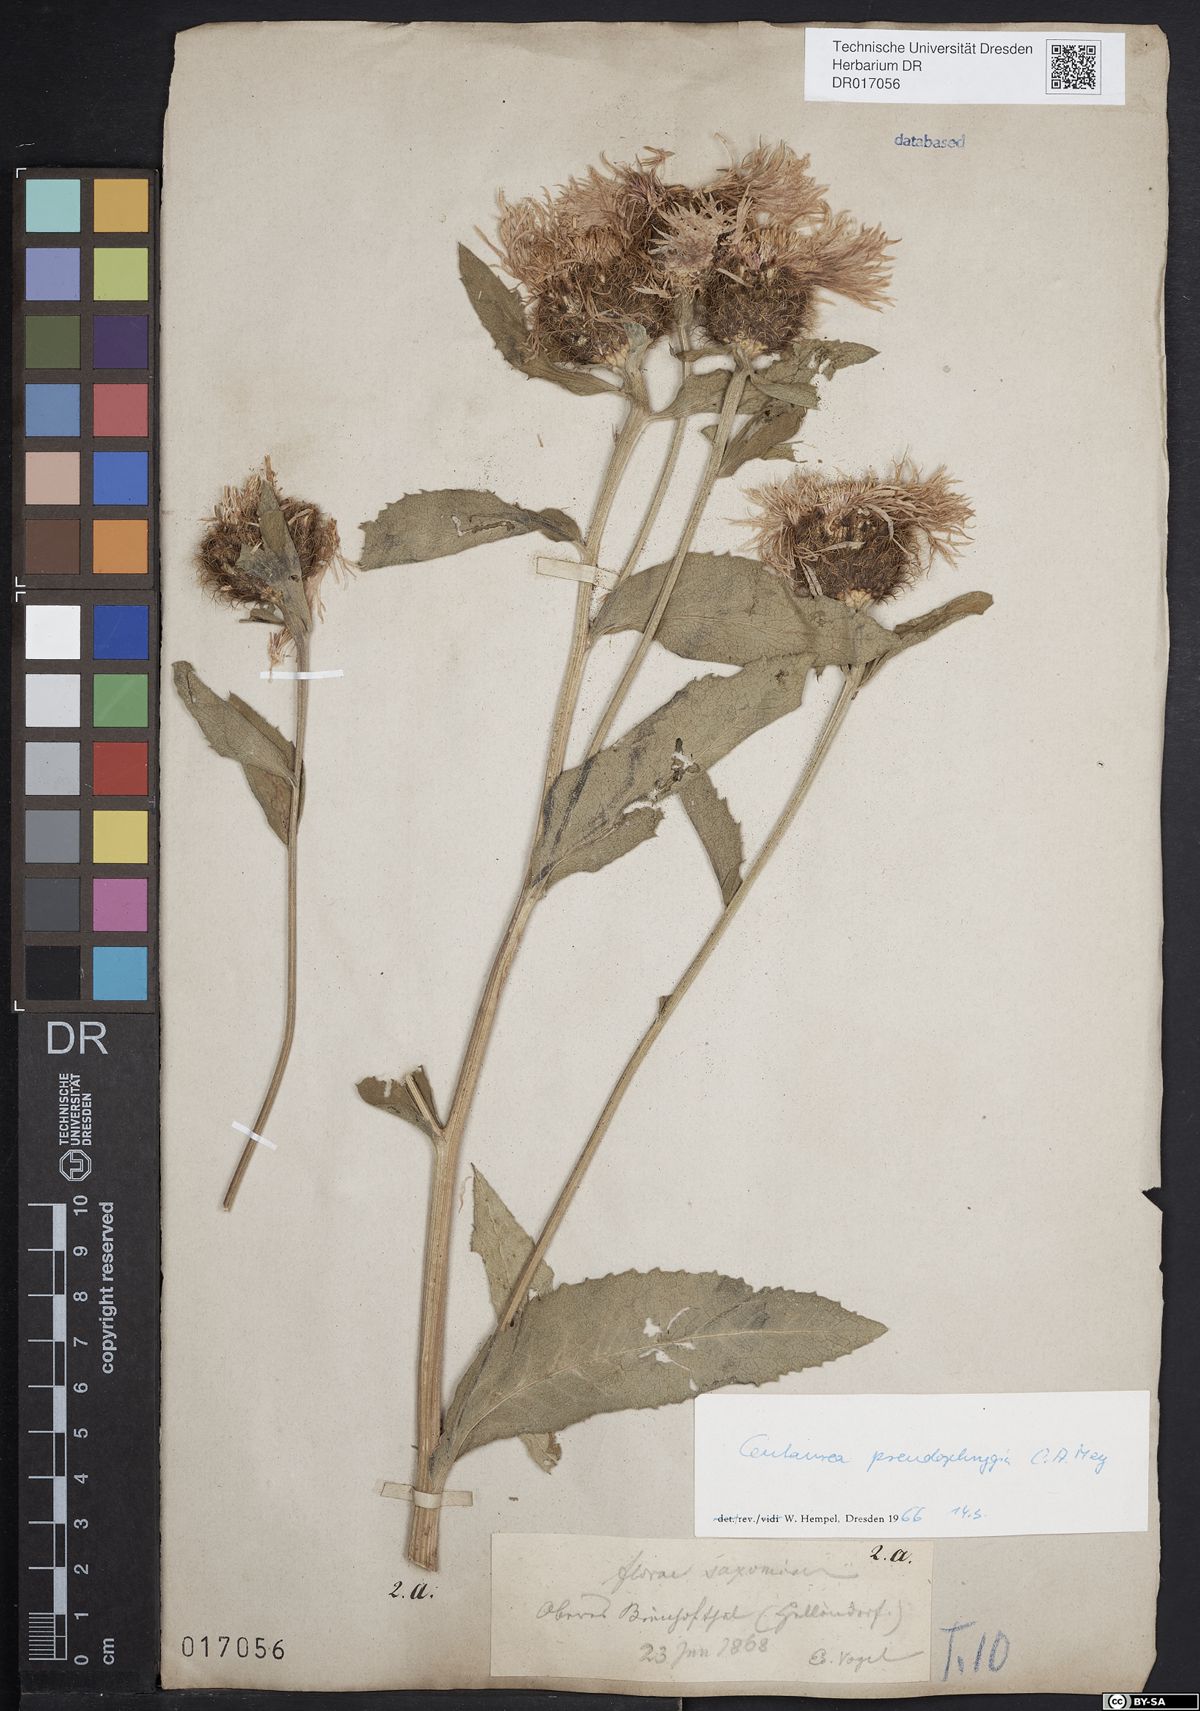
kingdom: Plantae
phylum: Tracheophyta
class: Magnoliopsida
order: Asterales
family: Asteraceae
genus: Centaurea
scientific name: Centaurea pseudophrygia
